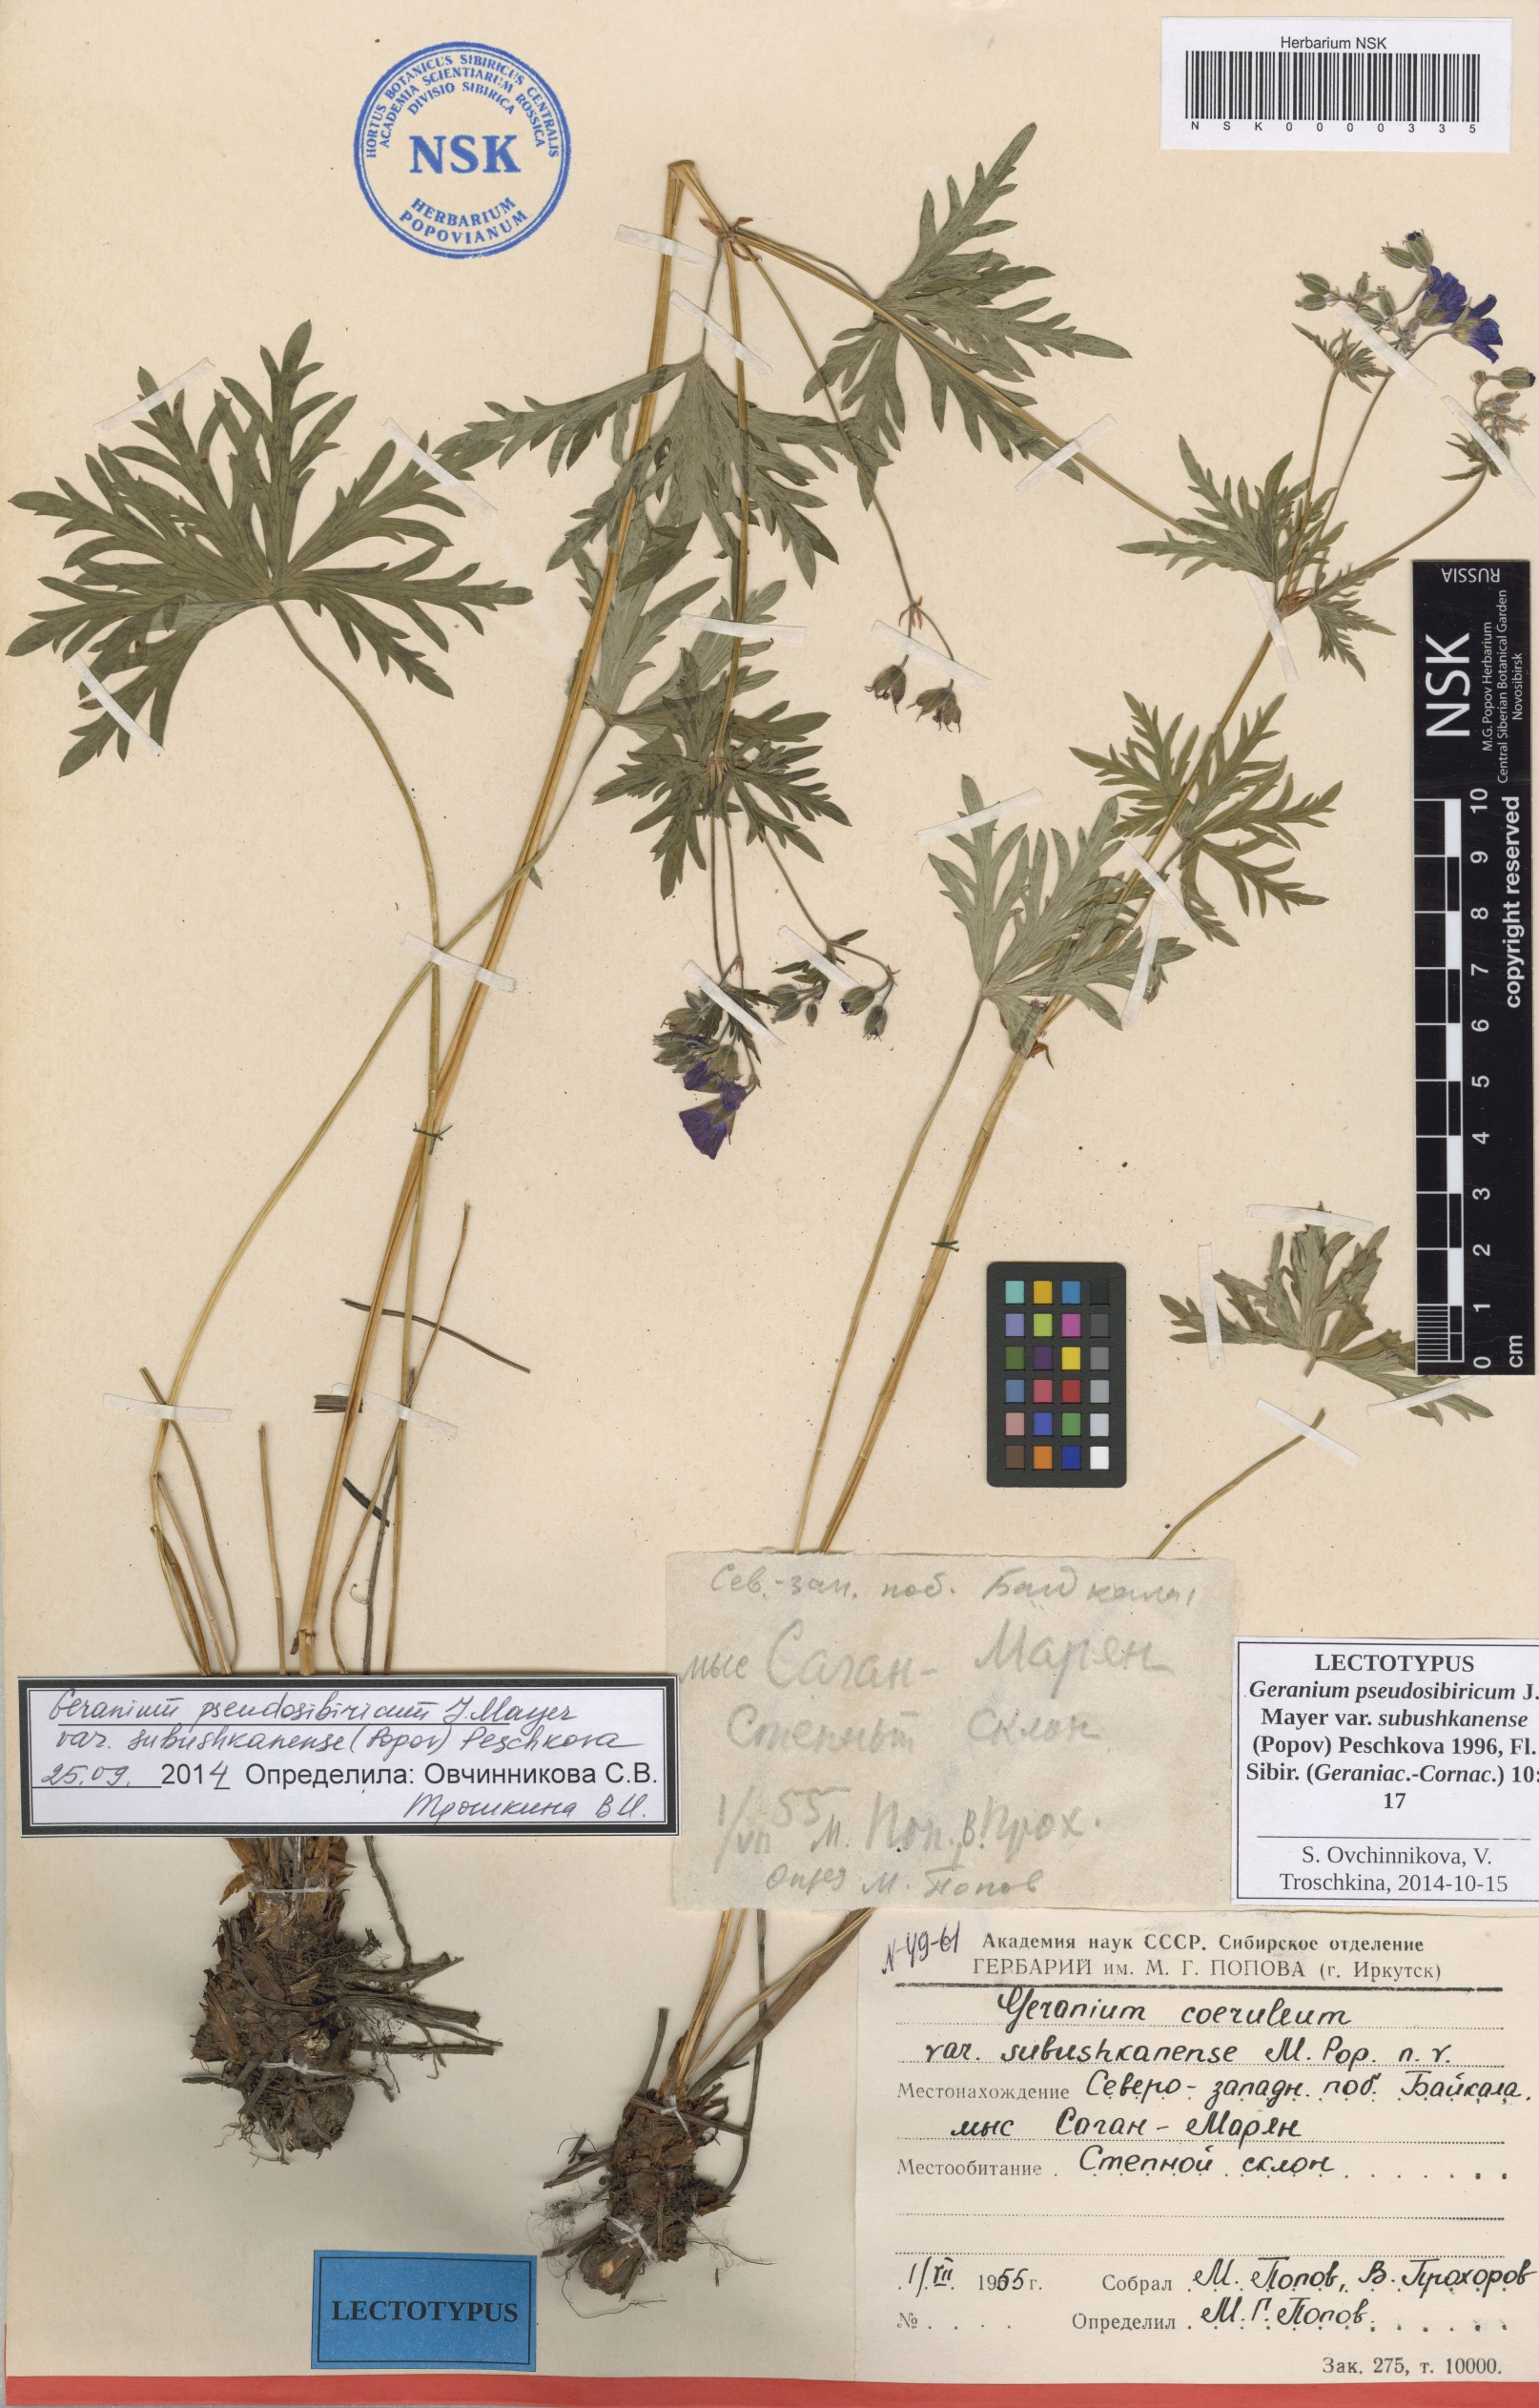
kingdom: Plantae
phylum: Tracheophyta
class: Magnoliopsida
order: Geraniales
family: Geraniaceae
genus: Geranium
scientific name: Geranium pseudosibiricum
